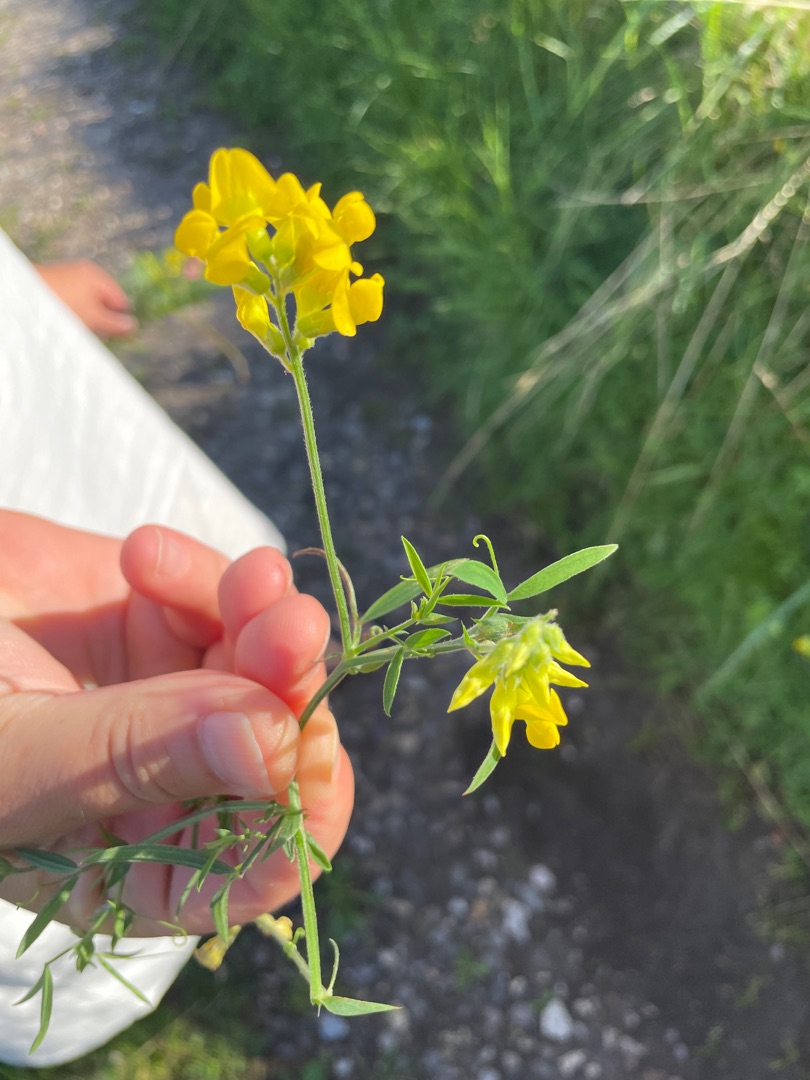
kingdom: Plantae
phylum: Tracheophyta
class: Magnoliopsida
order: Fabales
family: Fabaceae
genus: Lathyrus
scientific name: Lathyrus pratensis
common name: Gul fladbælg
